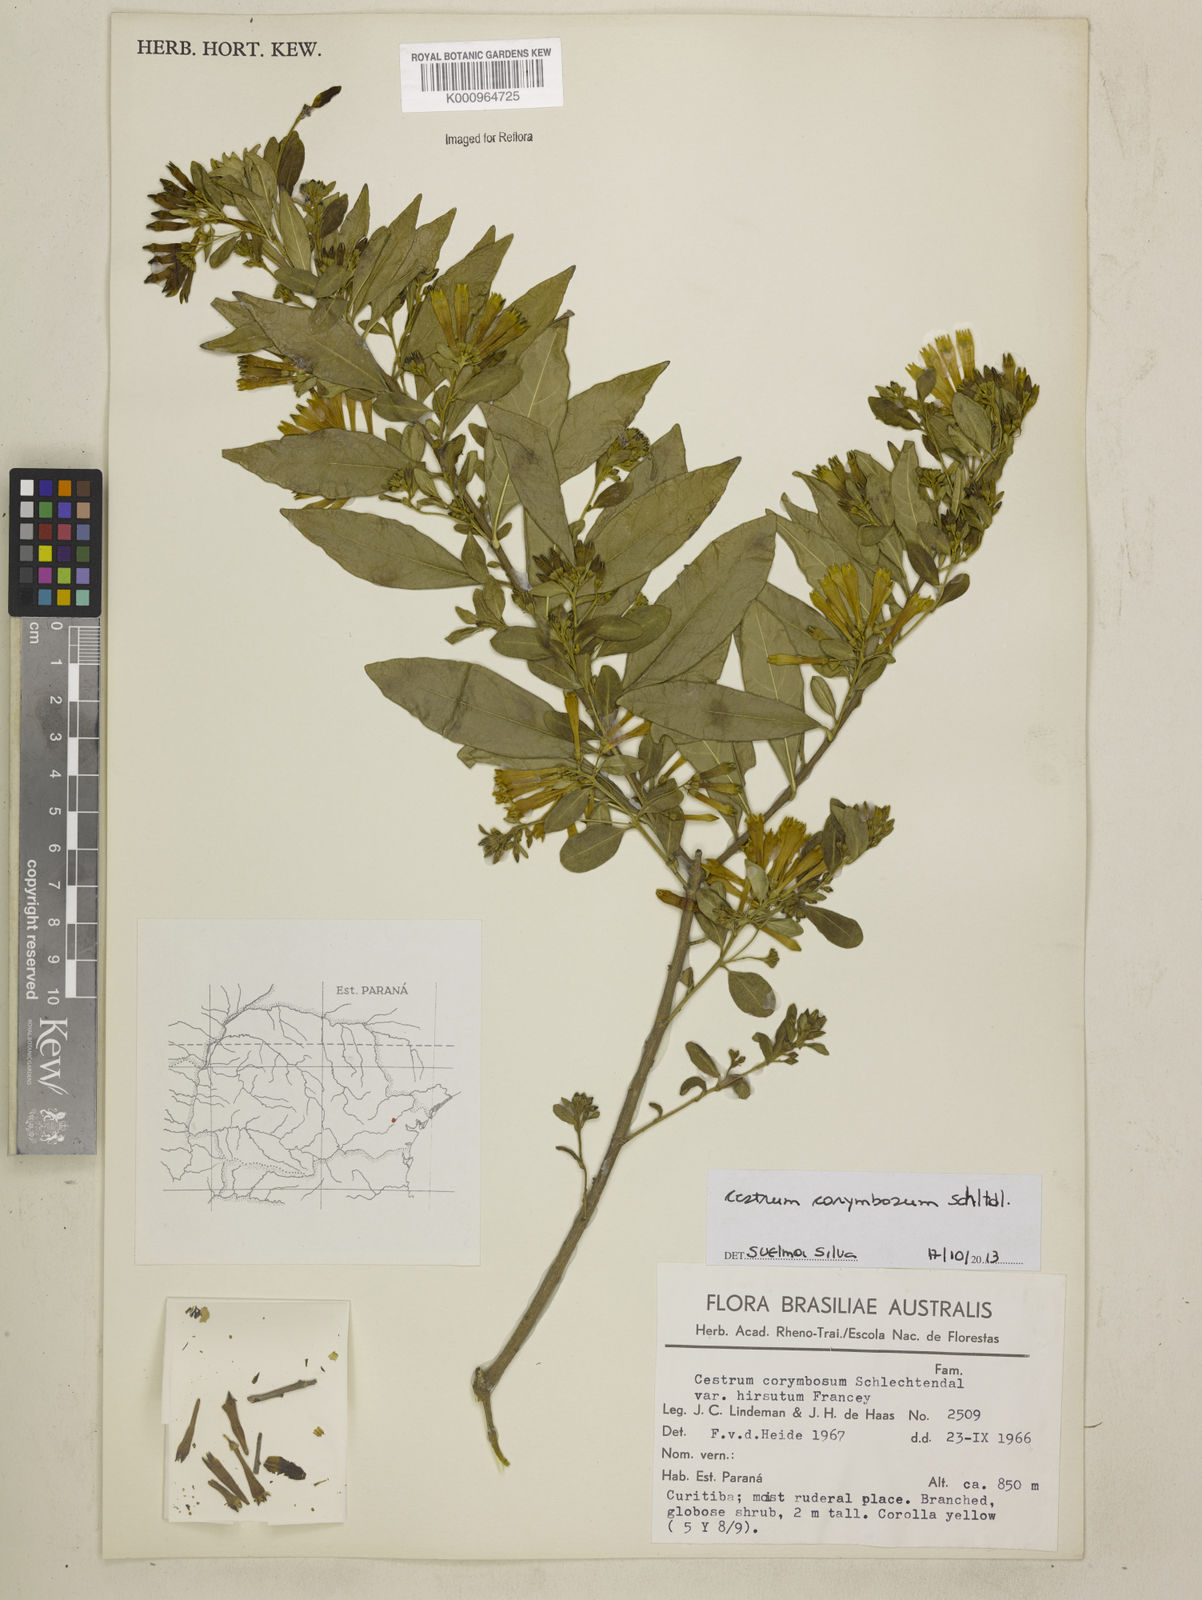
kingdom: Plantae
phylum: Tracheophyta
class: Magnoliopsida
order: Solanales
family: Solanaceae
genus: Cestrum
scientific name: Cestrum corymbosum
